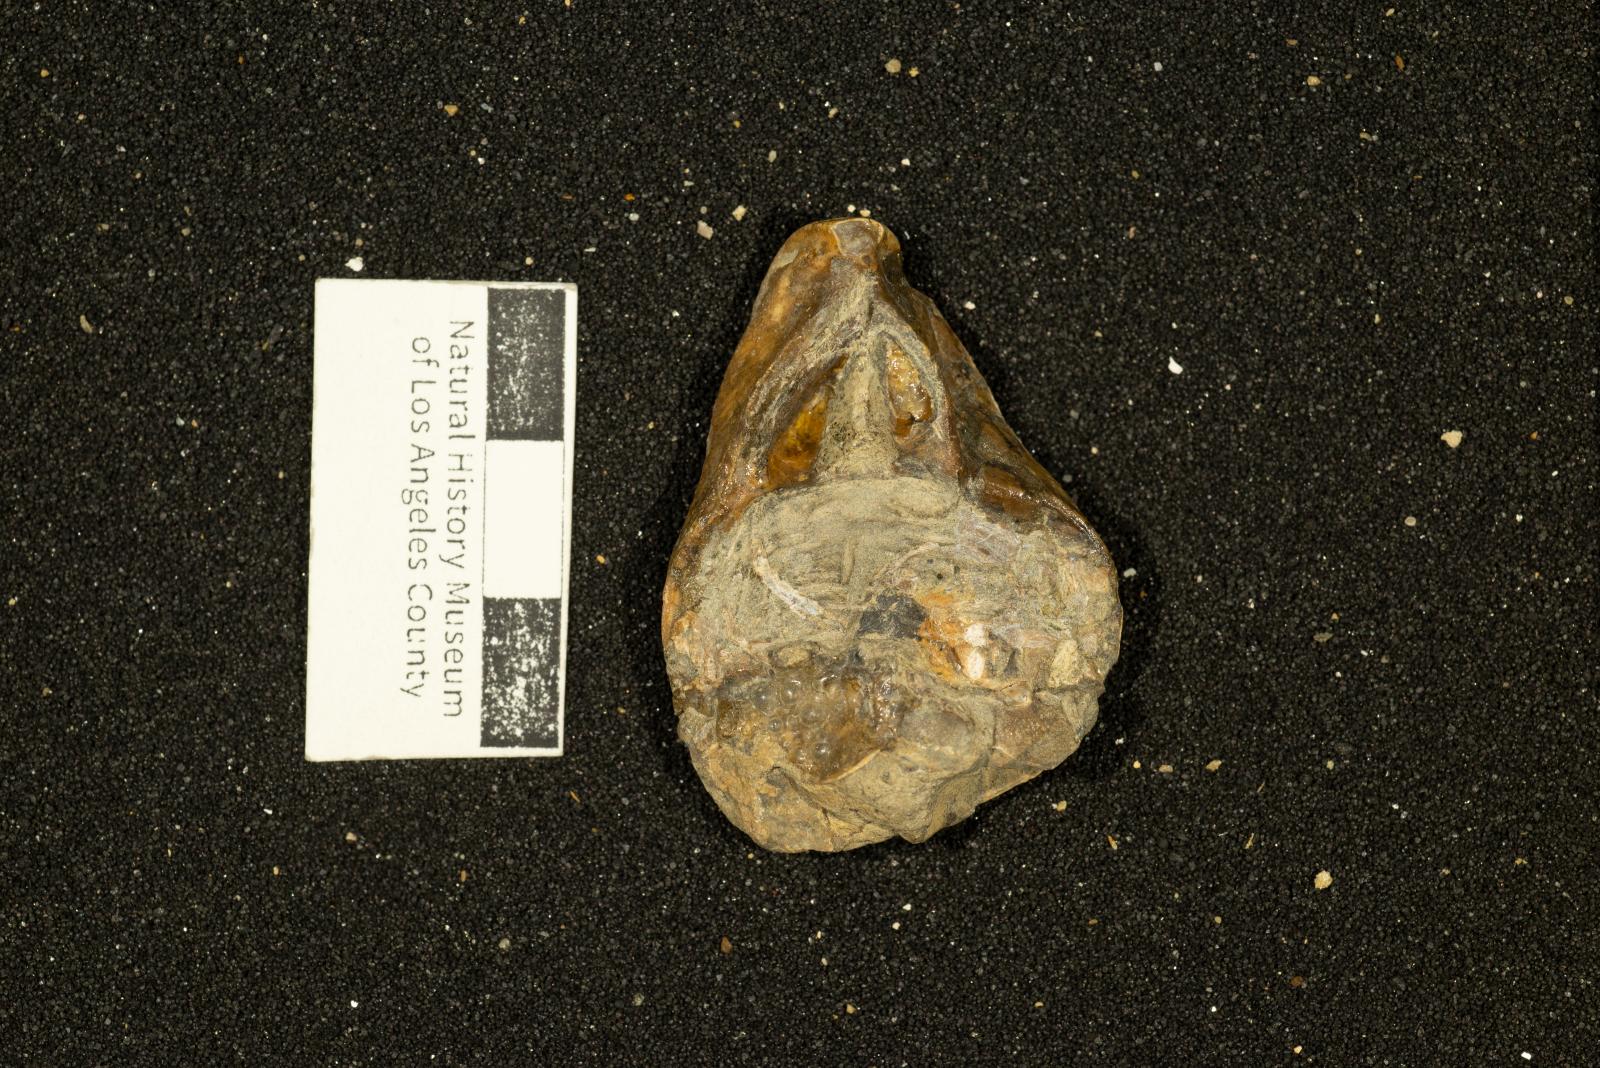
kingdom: Animalia
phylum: Mollusca
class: Bivalvia
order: Carditida
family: Astartidae
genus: Opis
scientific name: Opis anae
